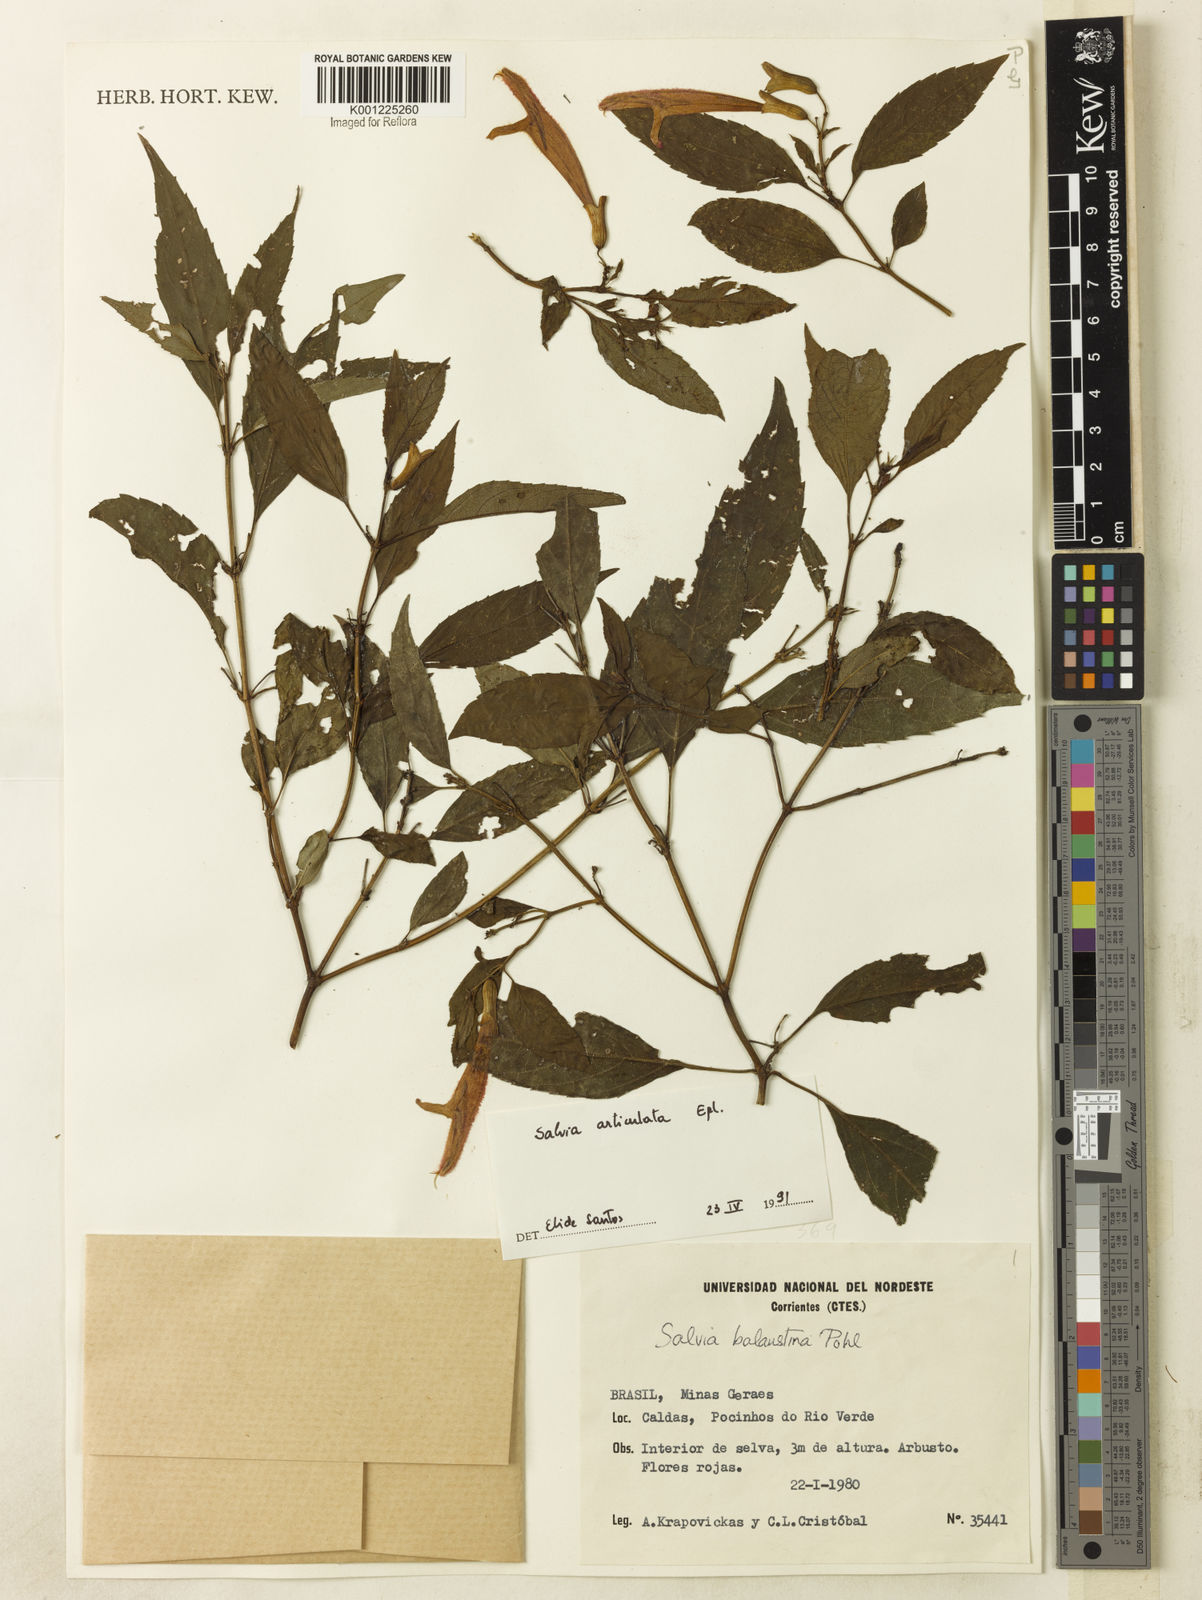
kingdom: Plantae
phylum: Tracheophyta
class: Magnoliopsida
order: Lamiales
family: Lamiaceae
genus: Salvia
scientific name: Salvia articulata
